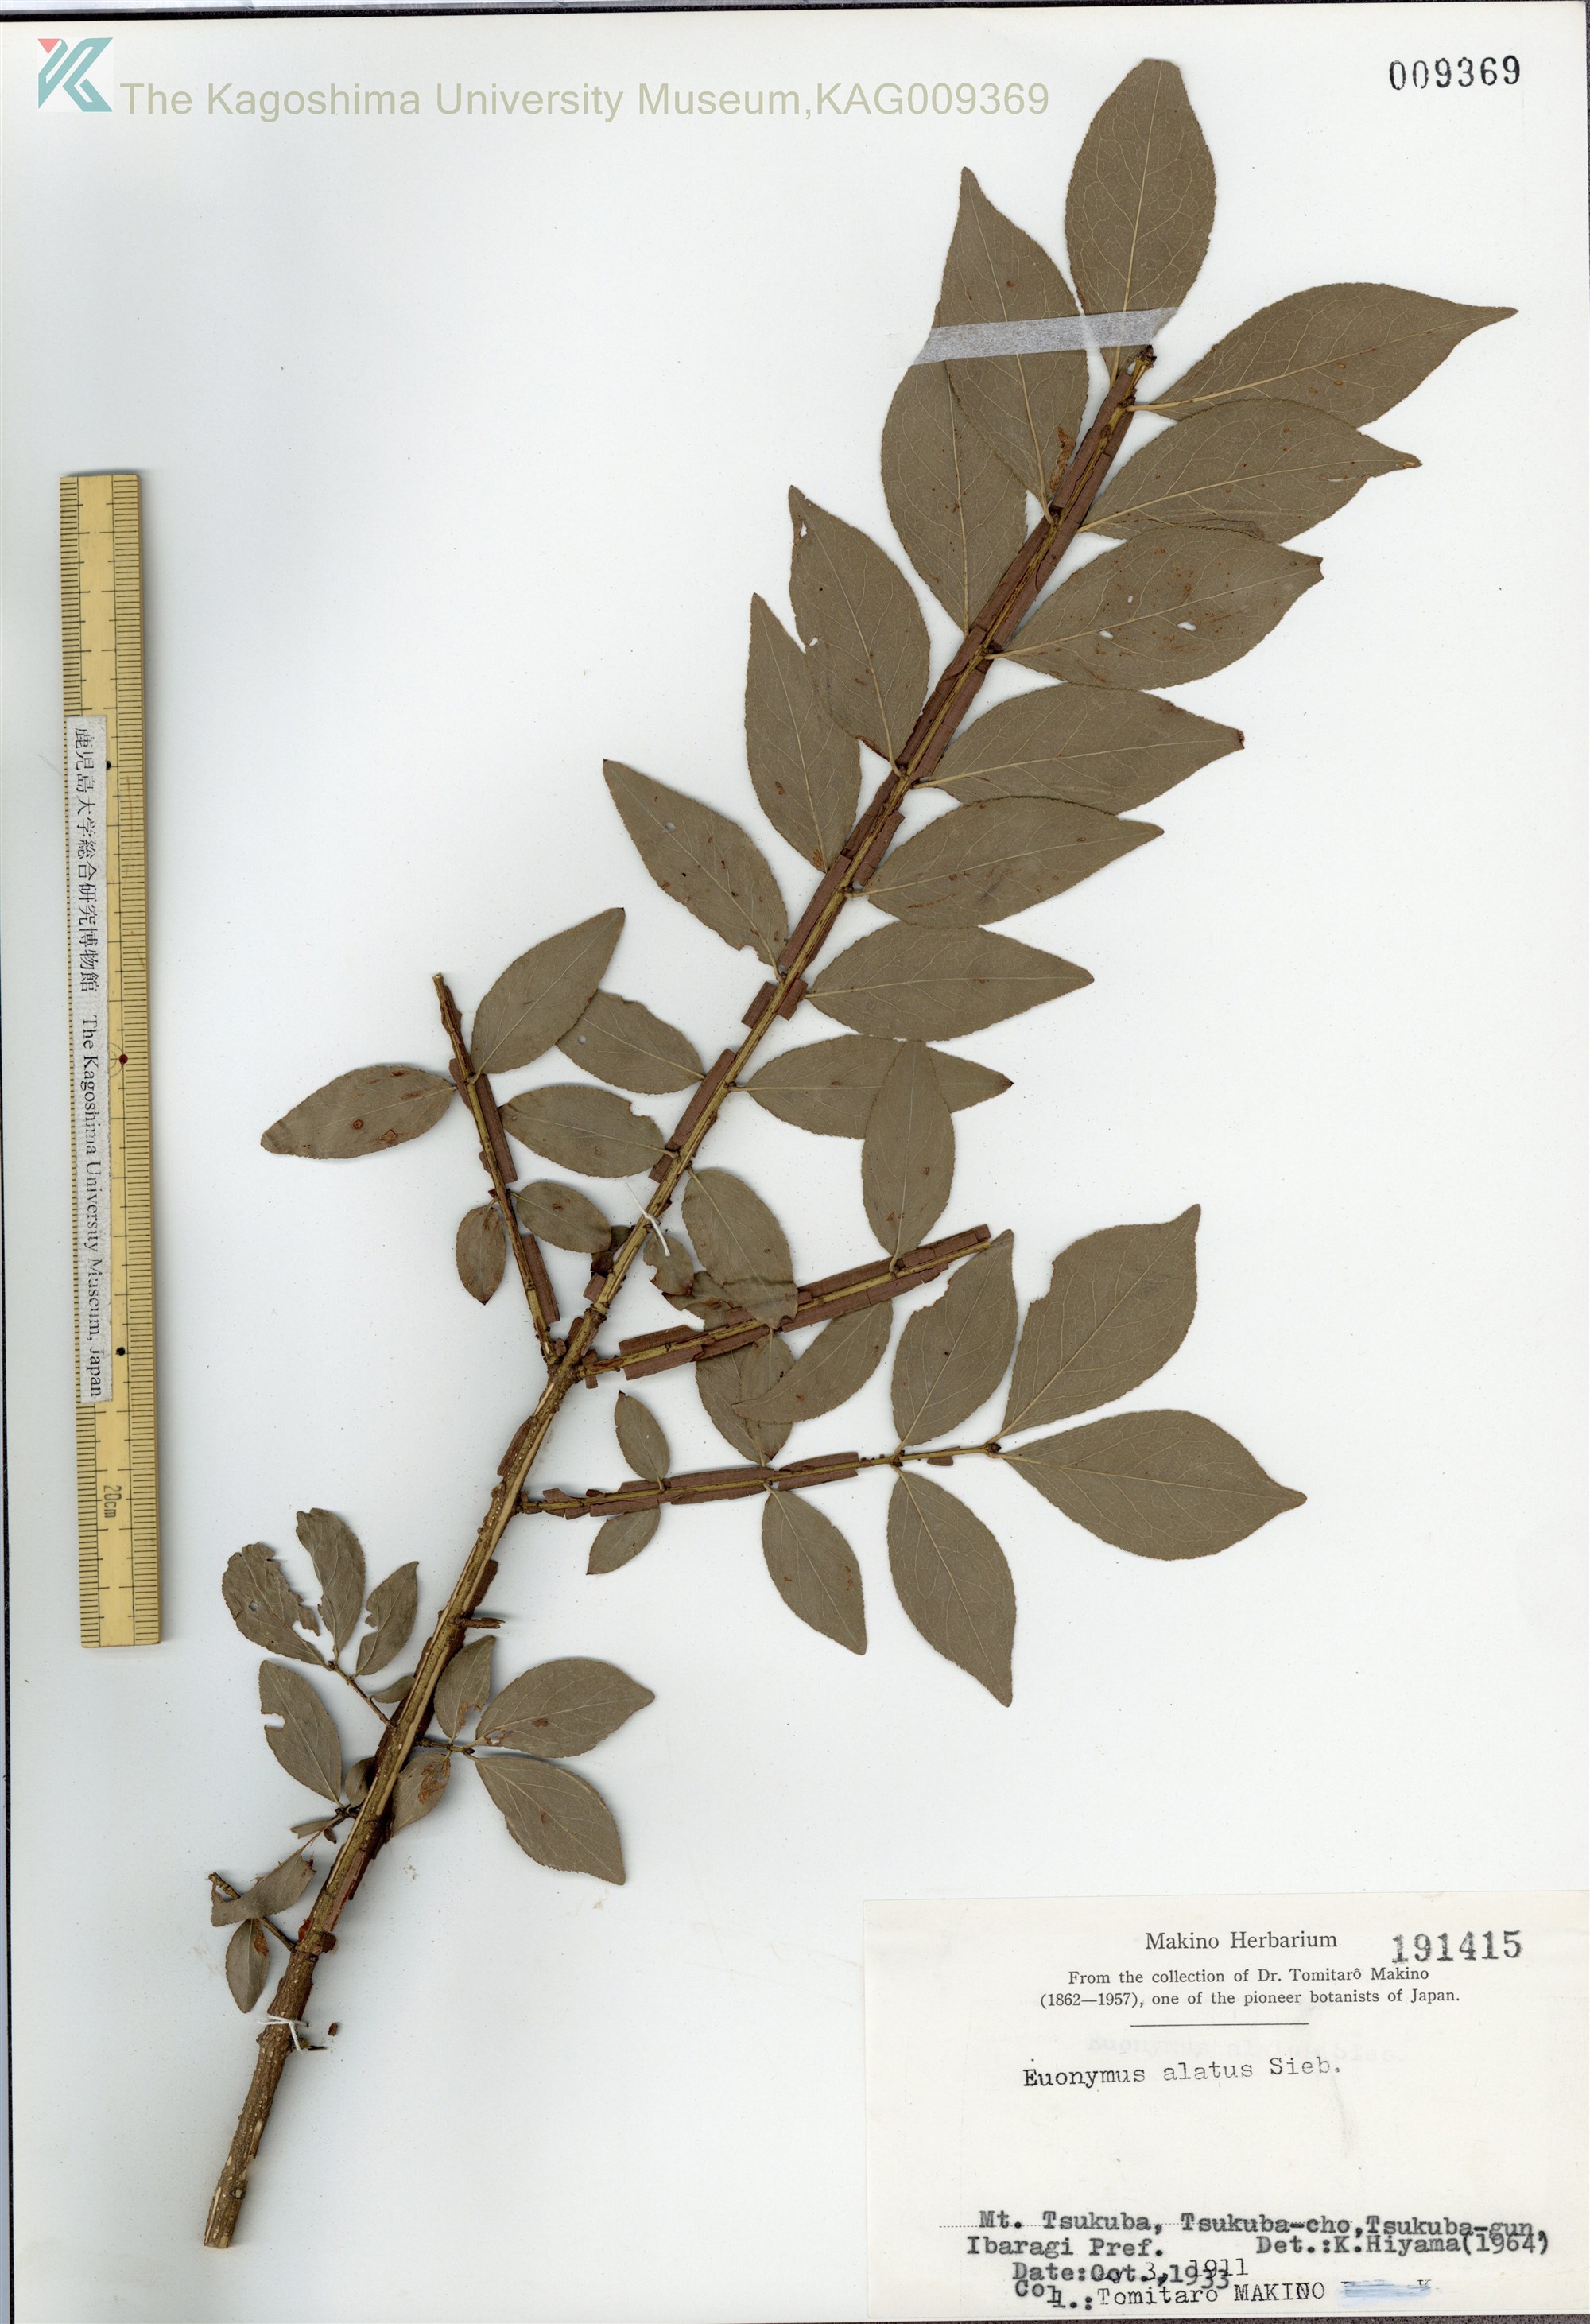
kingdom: Plantae
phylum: Tracheophyta
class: Magnoliopsida
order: Celastrales
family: Celastraceae
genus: Euonymus
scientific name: Euonymus alatus
